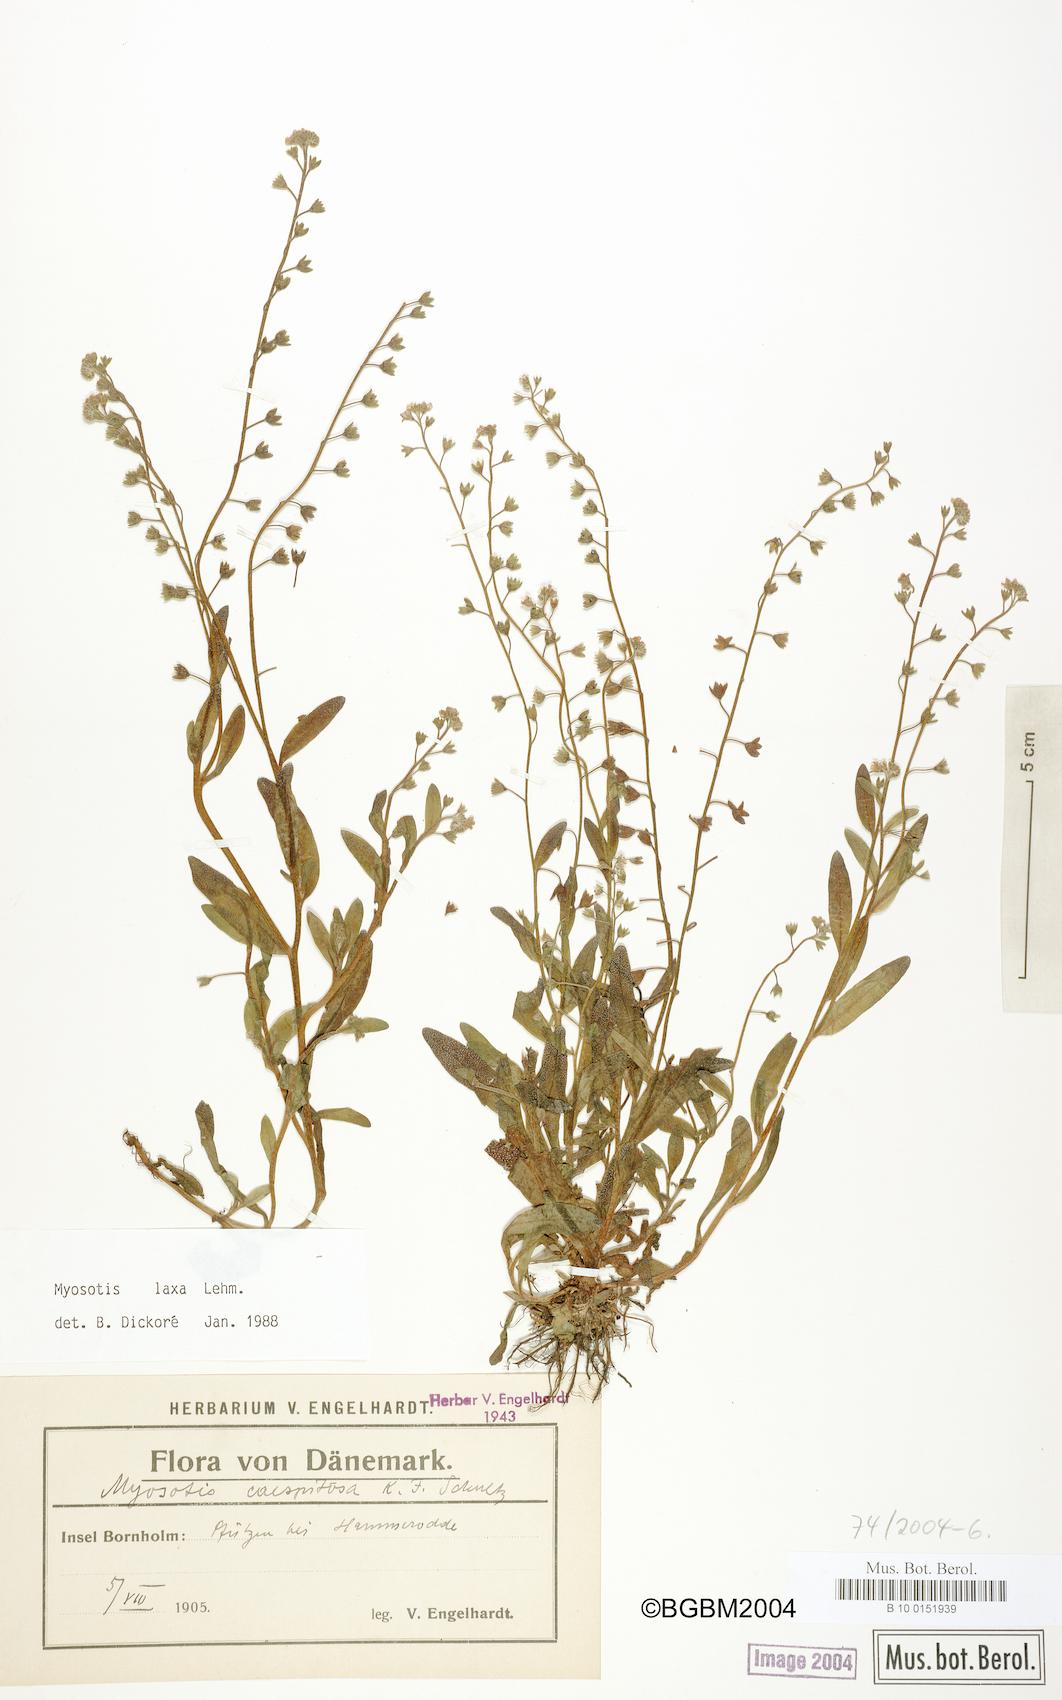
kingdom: Plantae
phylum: Tracheophyta
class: Magnoliopsida
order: Boraginales
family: Boraginaceae
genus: Myosotis
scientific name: Myosotis laxa
